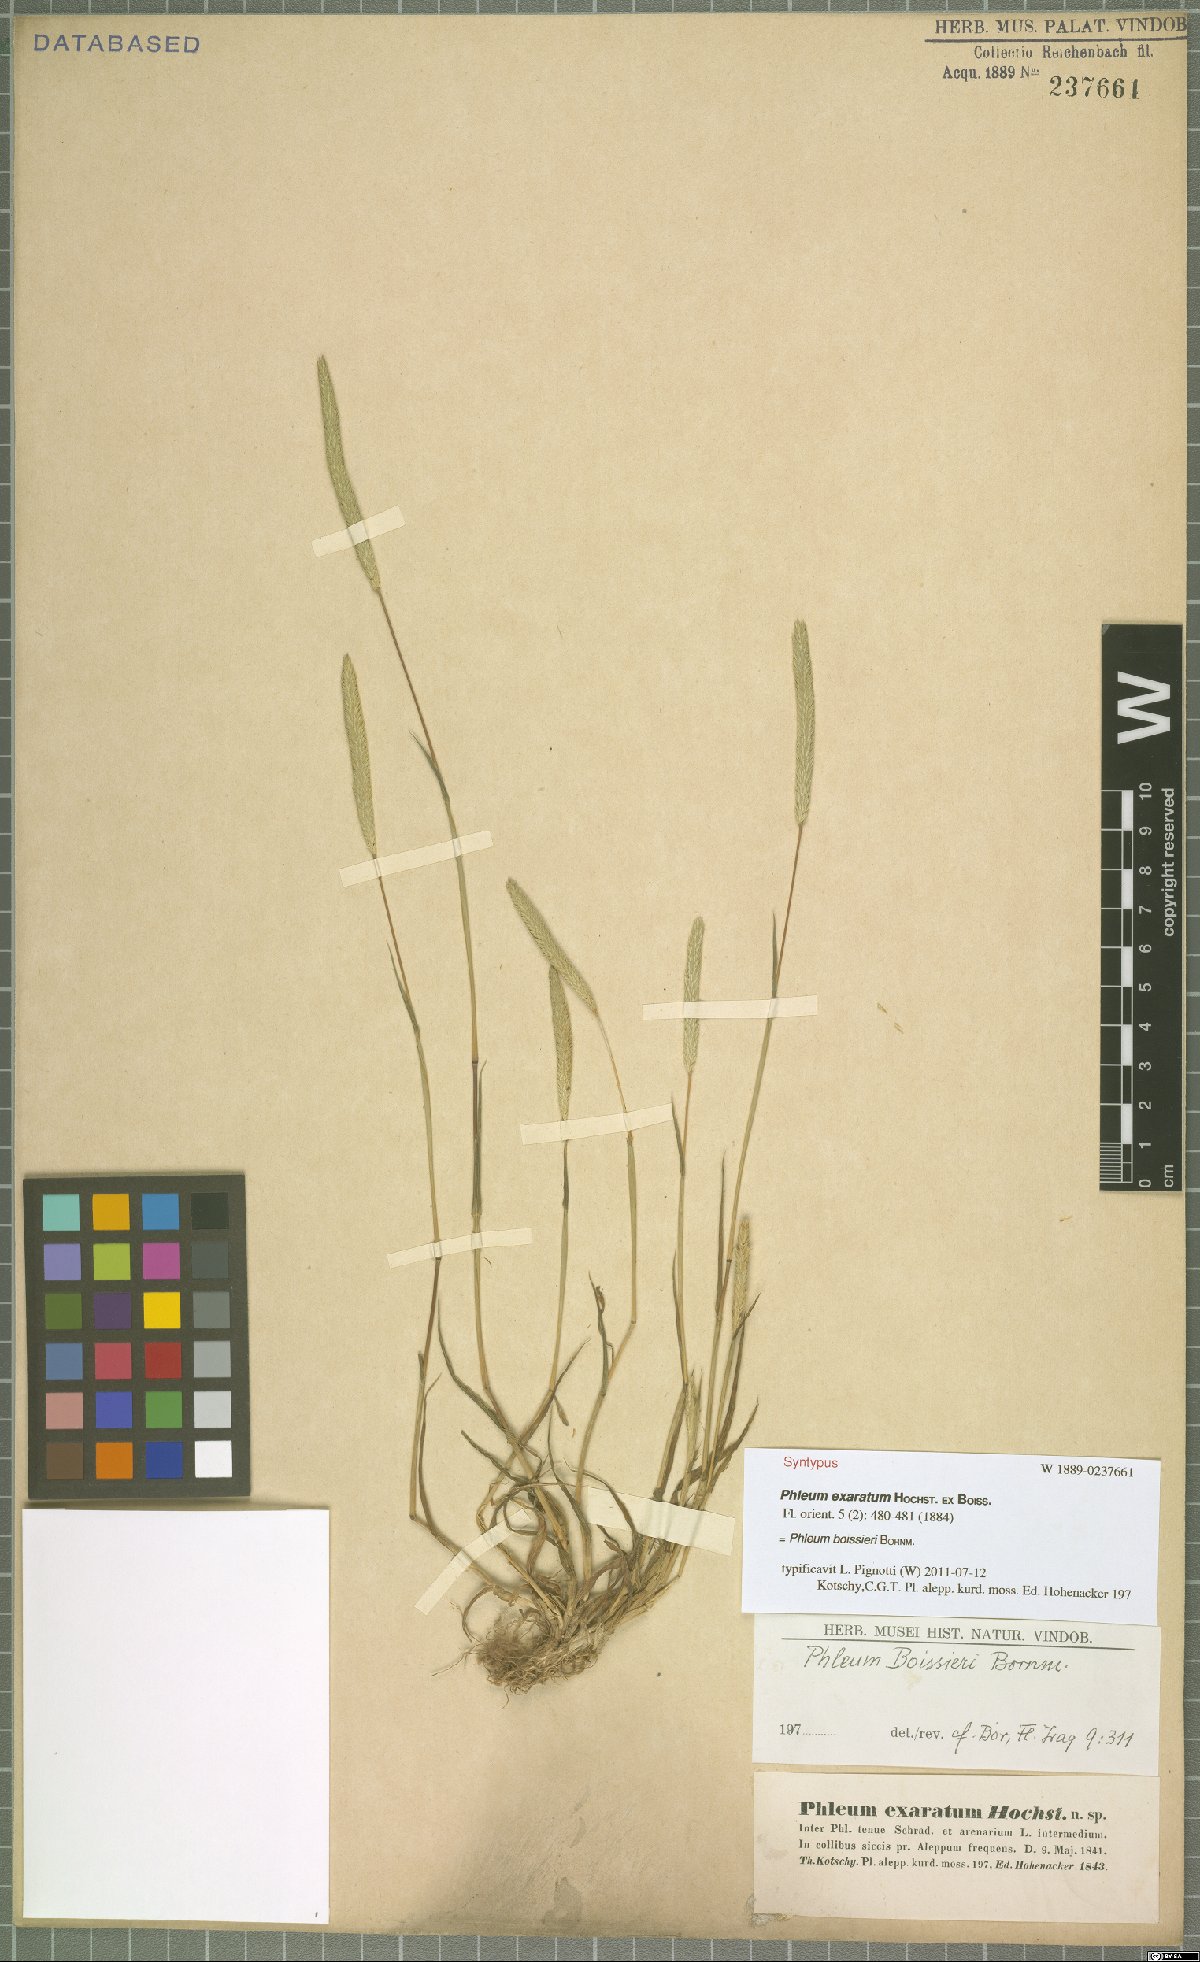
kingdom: Plantae
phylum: Tracheophyta
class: Liliopsida
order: Poales
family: Poaceae
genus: Phleum
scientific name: Phleum boissieri
